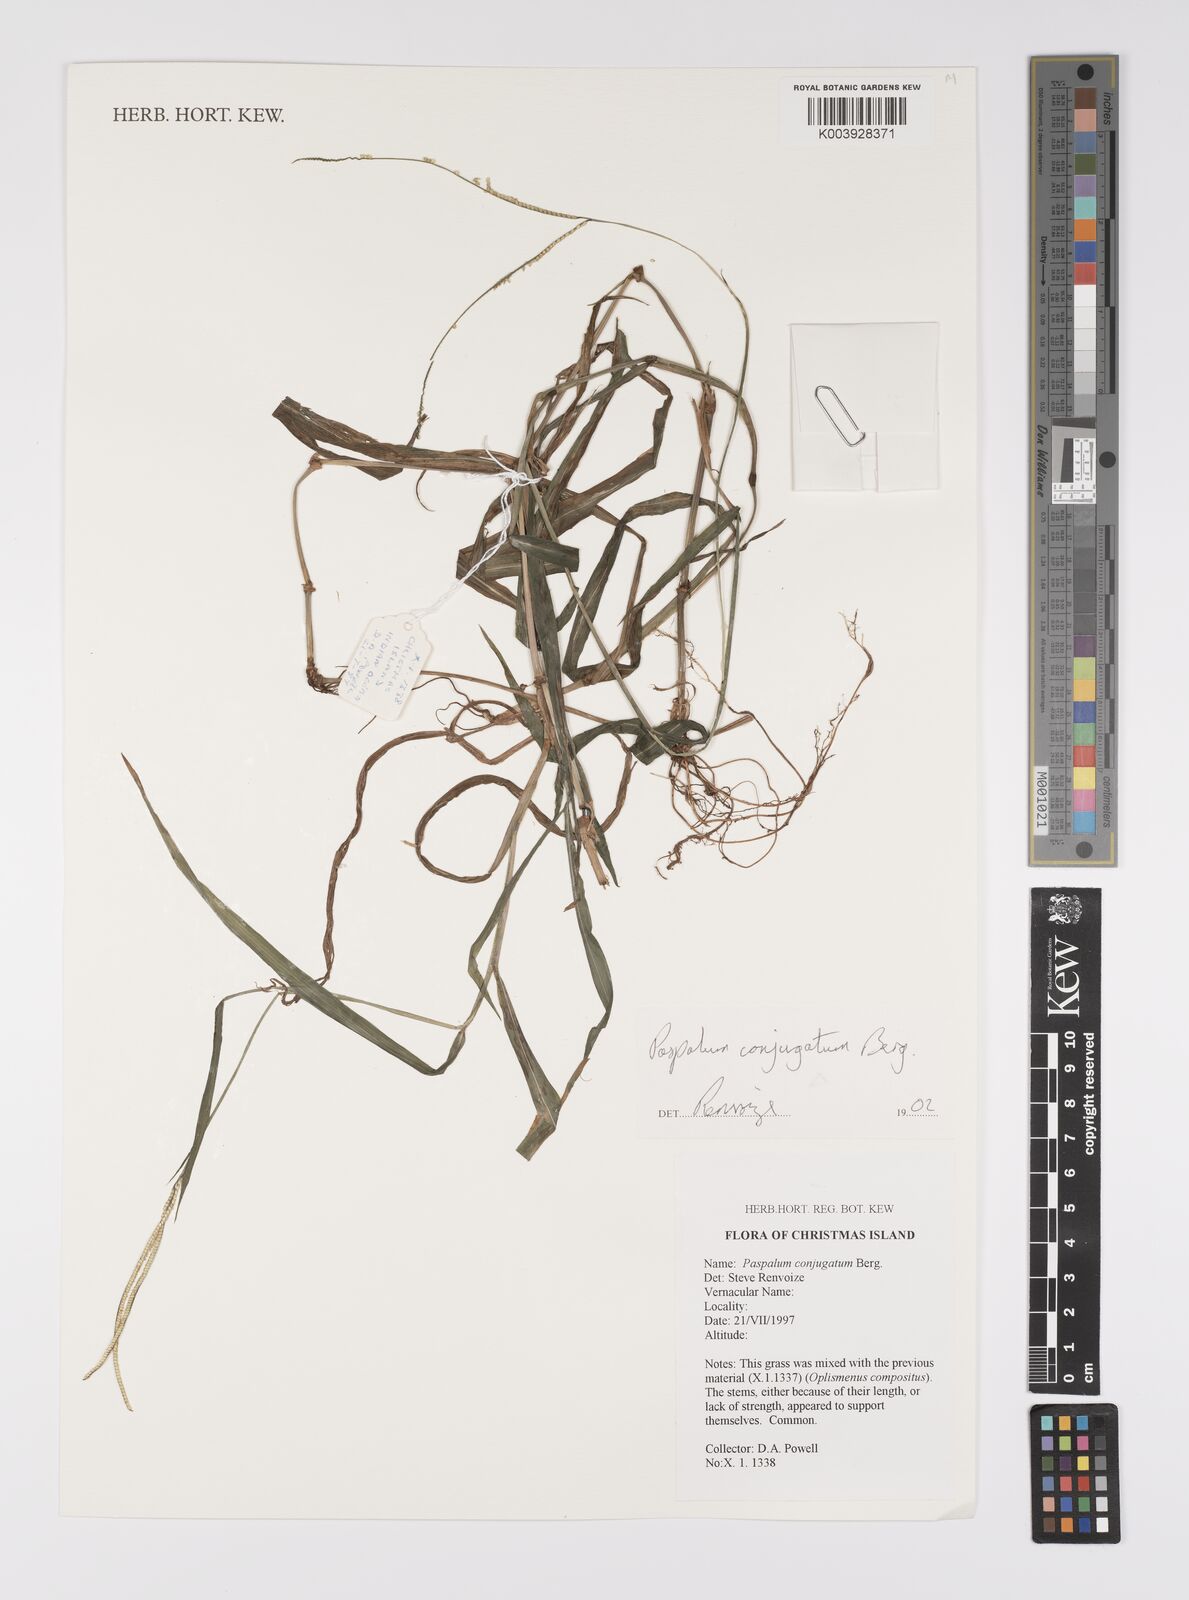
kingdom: Plantae
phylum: Tracheophyta
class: Liliopsida
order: Poales
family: Poaceae
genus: Paspalum
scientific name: Paspalum conjugatum
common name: Hilograss
